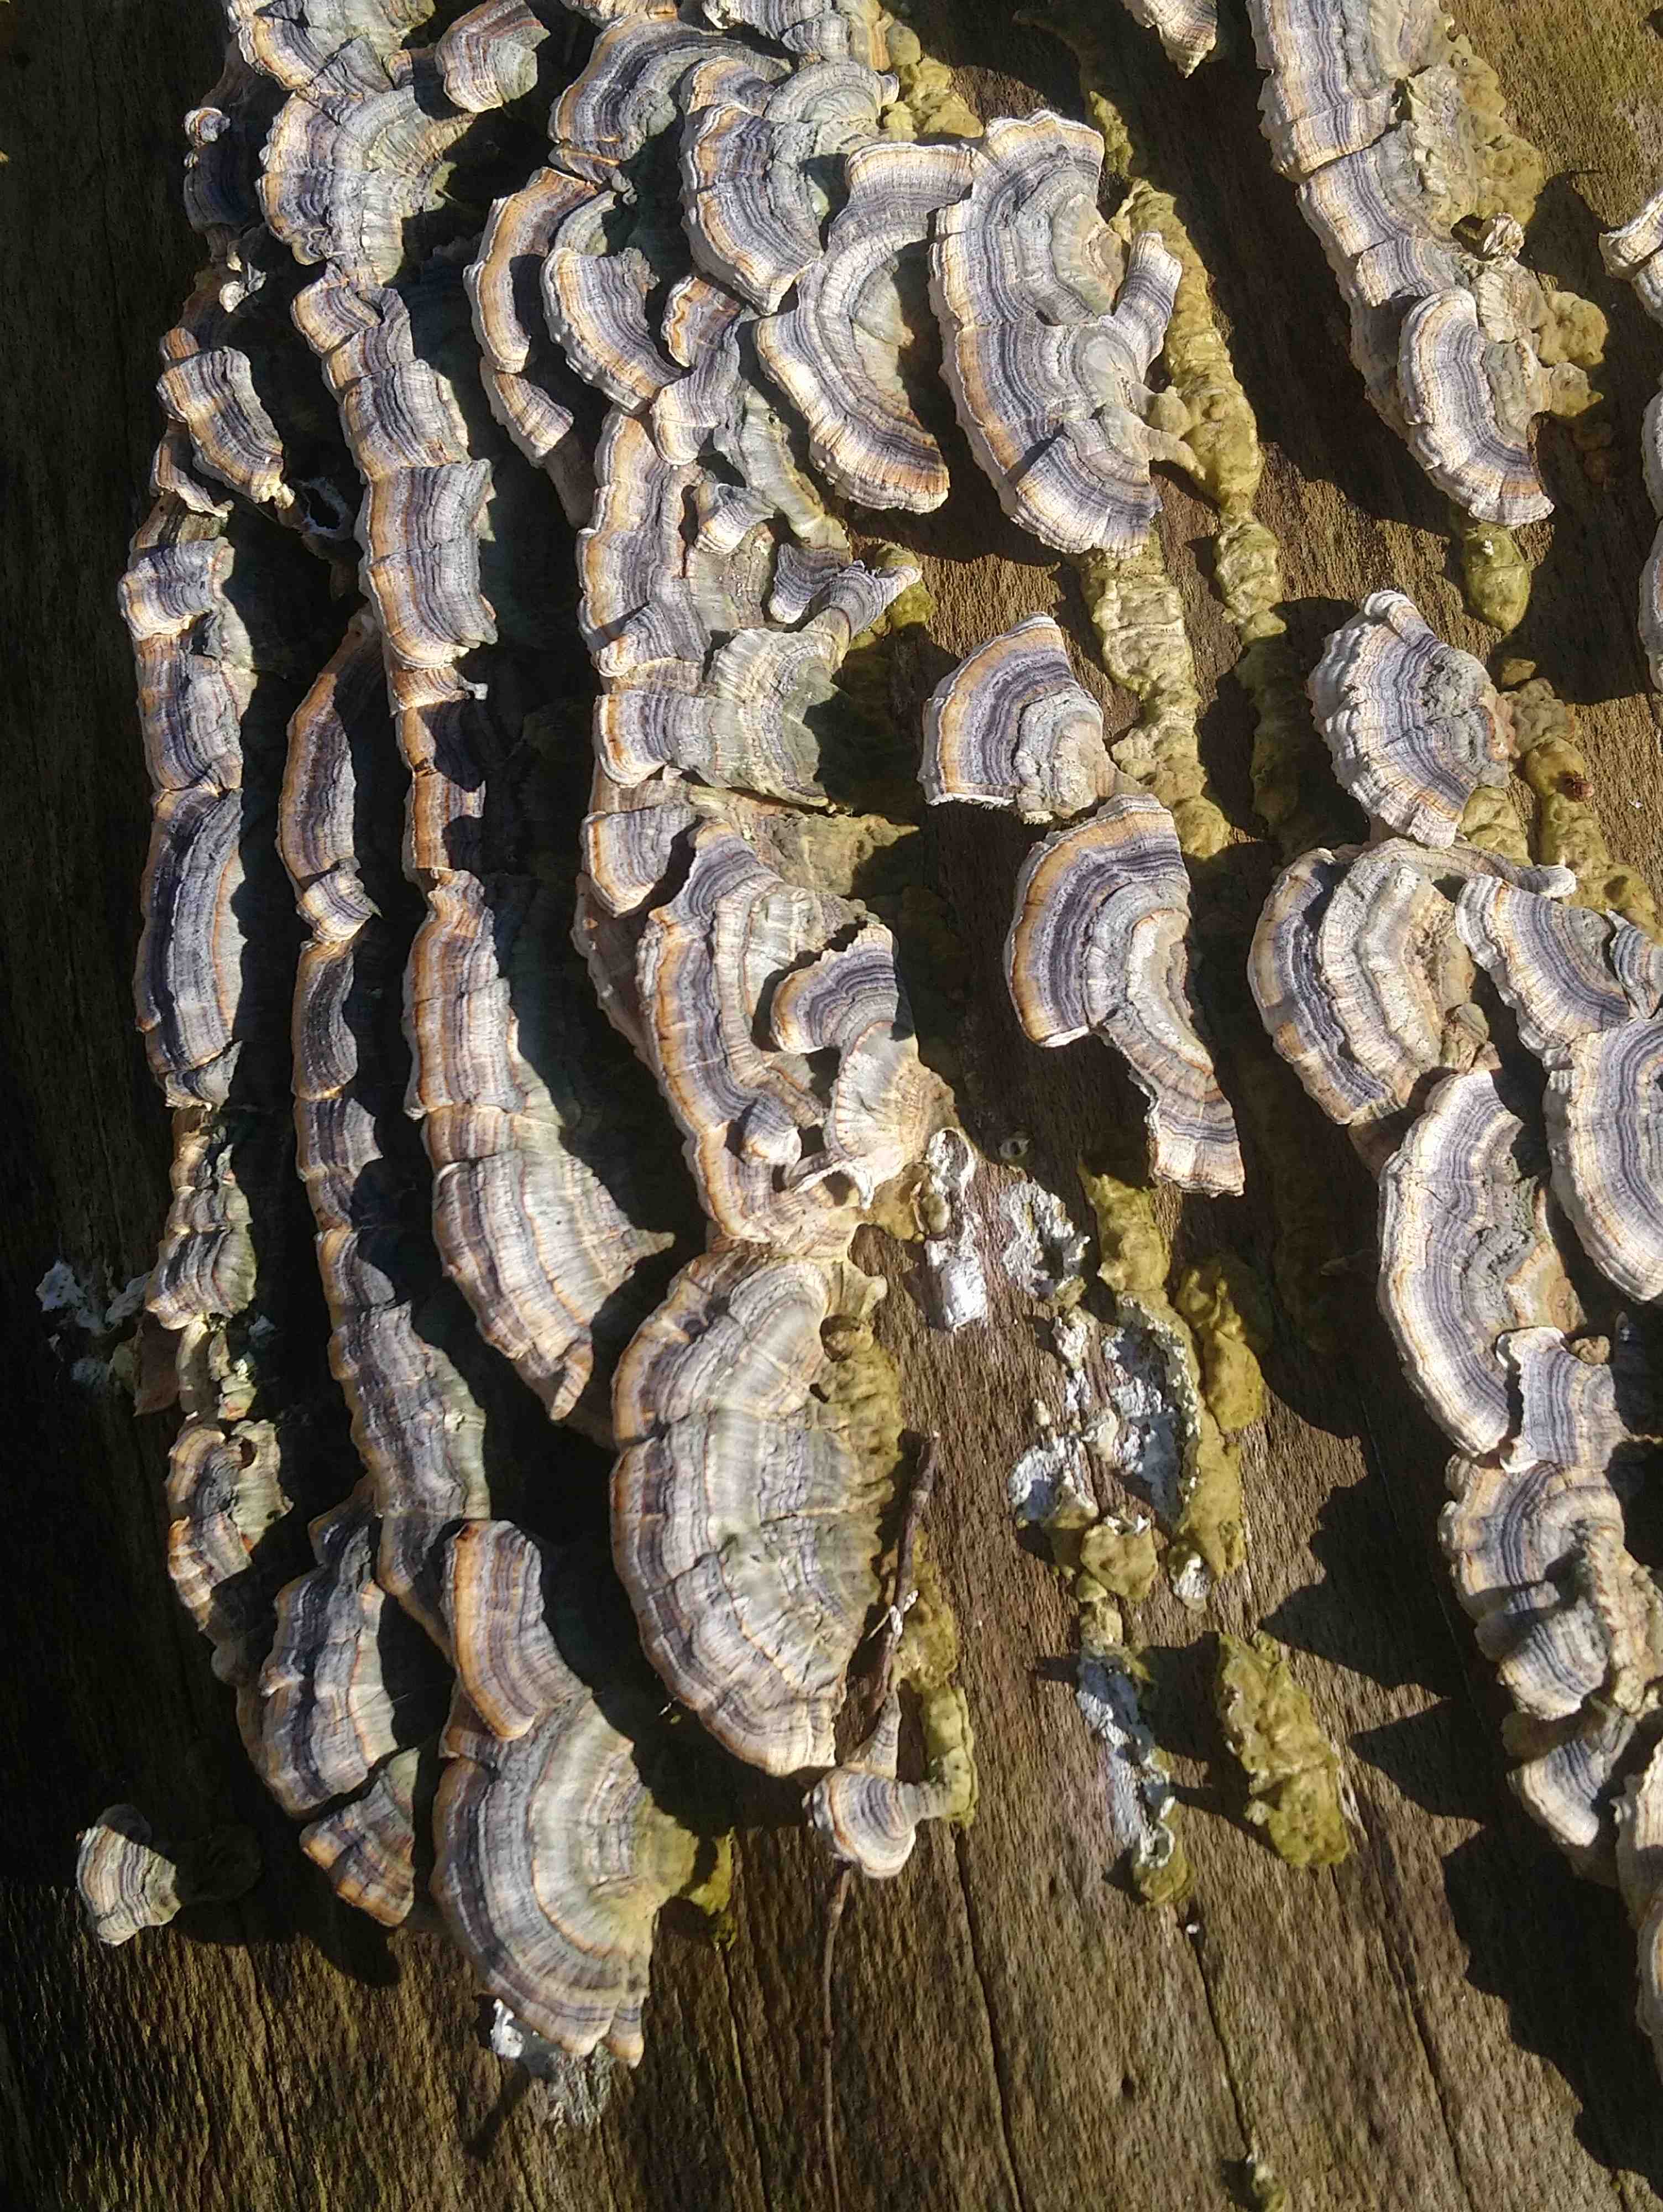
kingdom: Fungi
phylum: Basidiomycota
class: Agaricomycetes
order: Polyporales
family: Polyporaceae
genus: Trametes
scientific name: Trametes versicolor
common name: broget læderporesvamp
